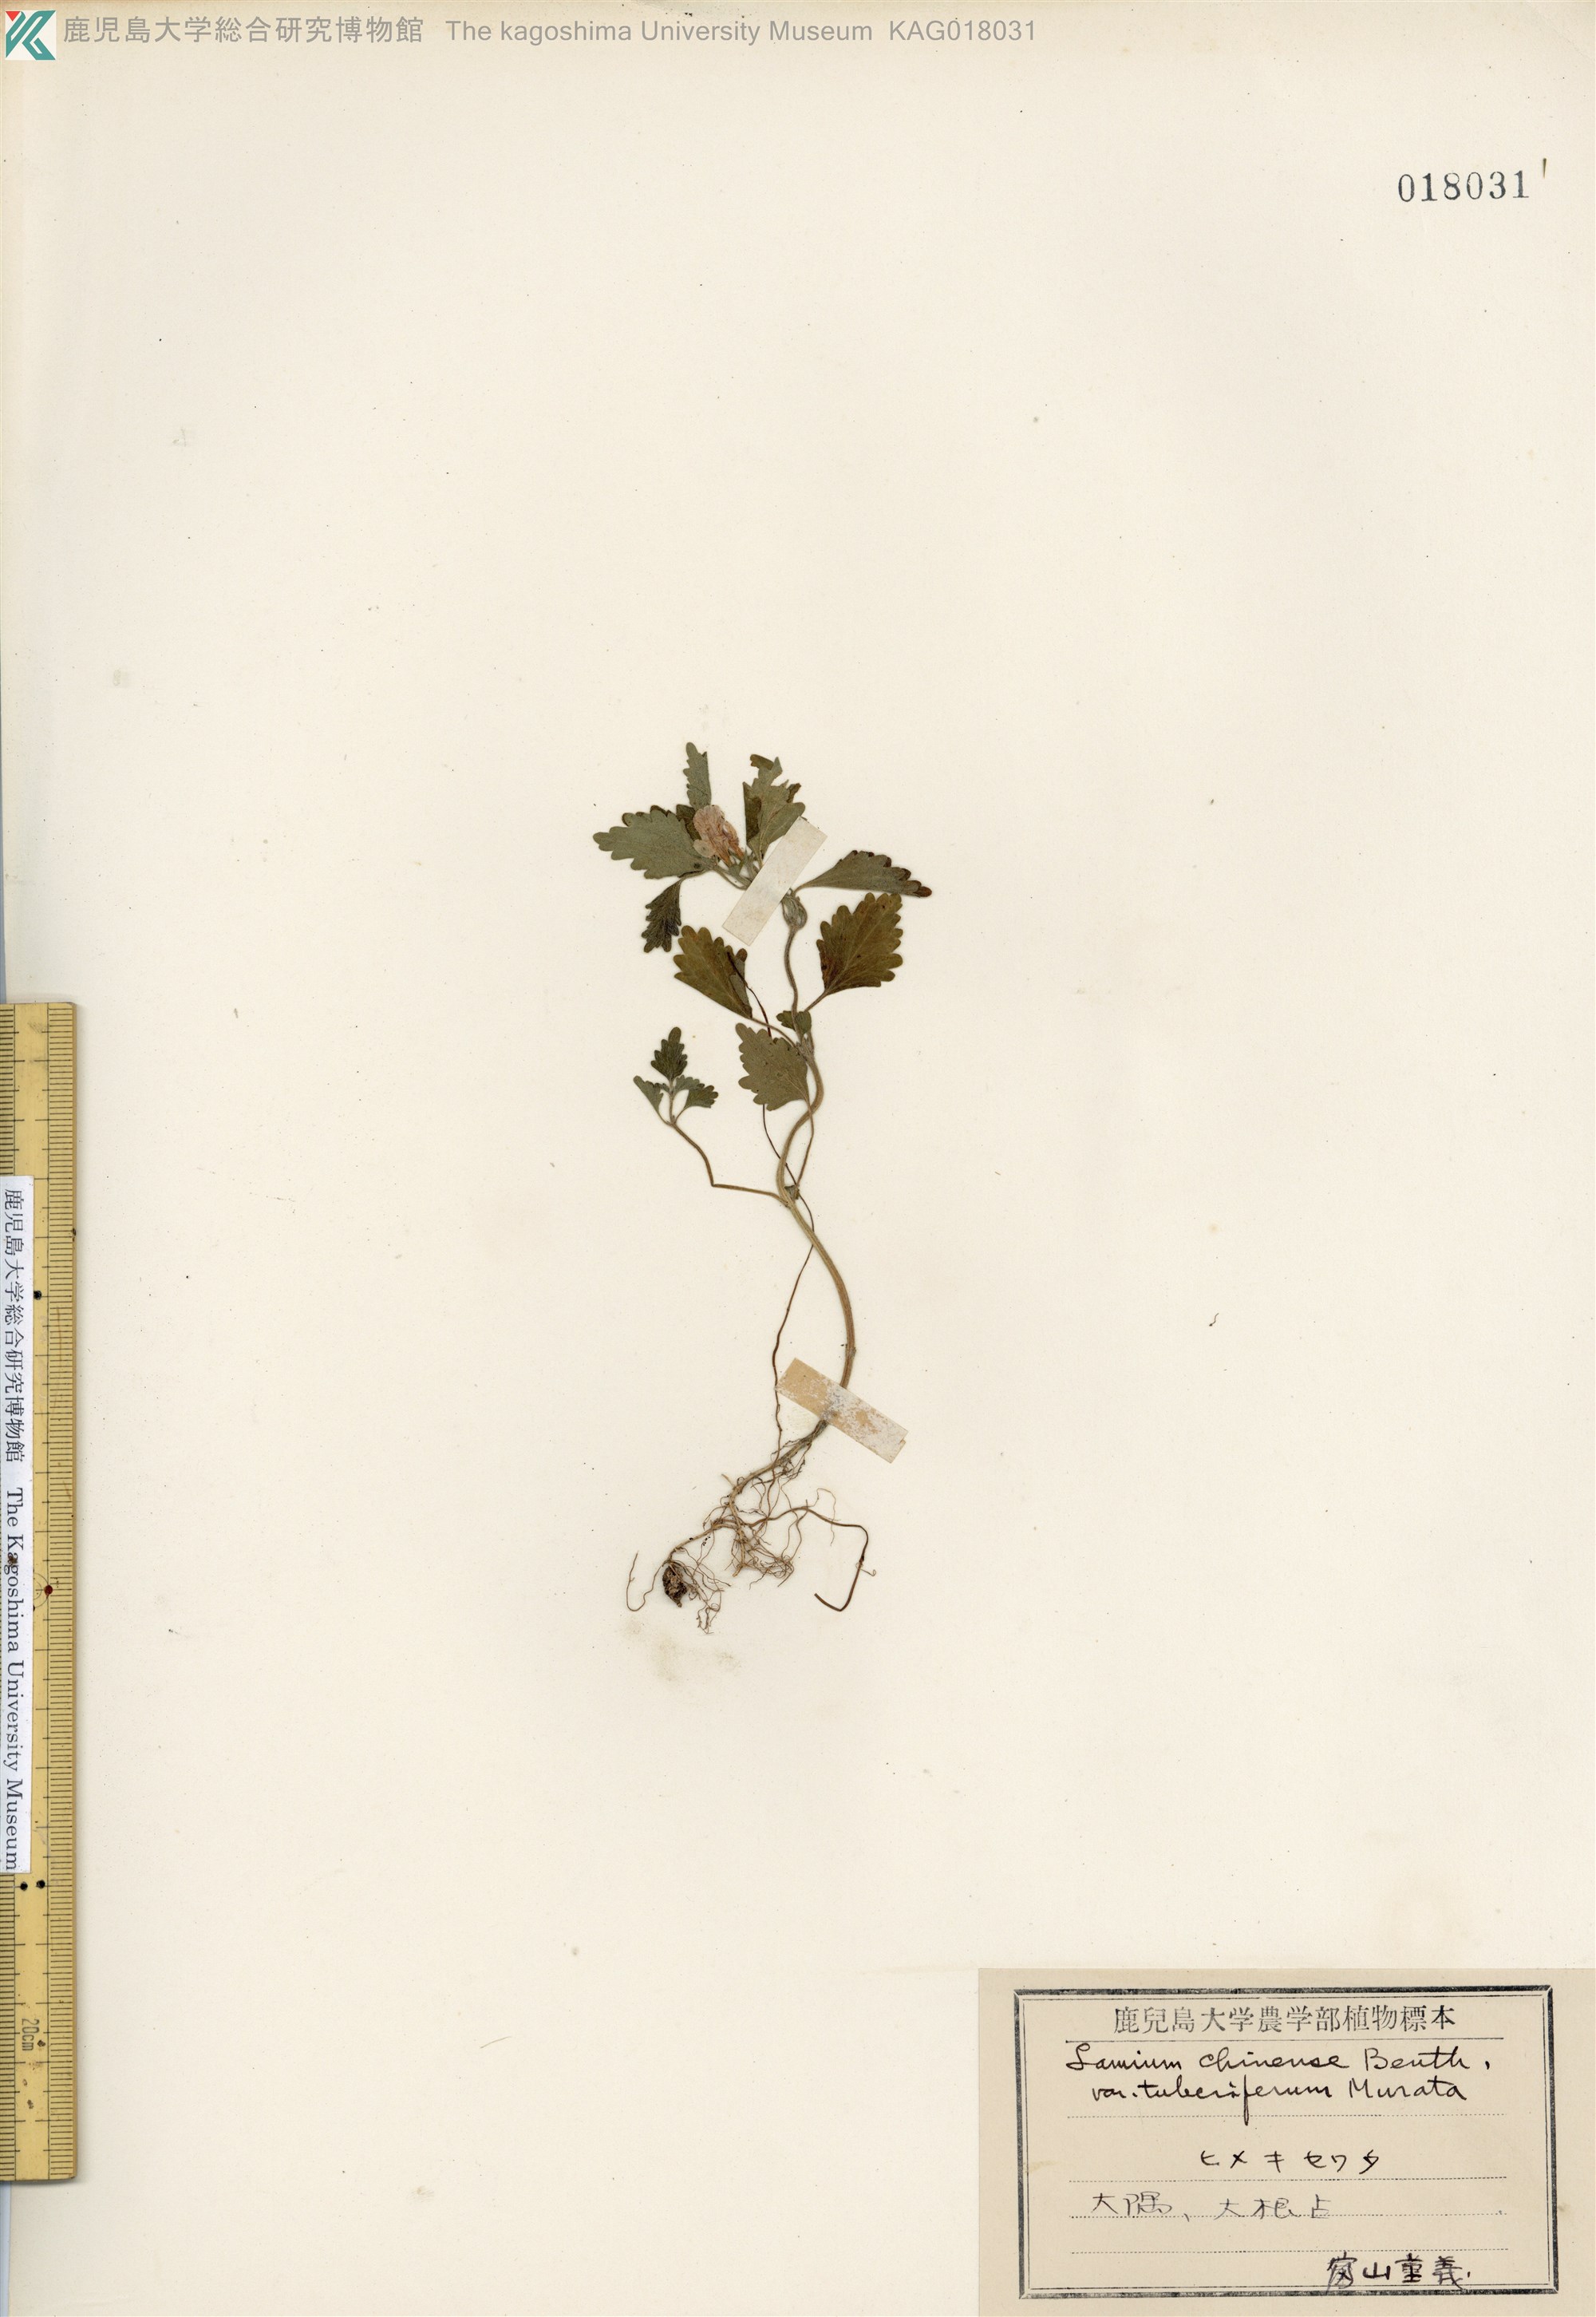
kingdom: Plantae
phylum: Tracheophyta
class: Magnoliopsida
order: Lamiales
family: Lamiaceae
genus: Matsumurella
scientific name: Matsumurella tuberifera
